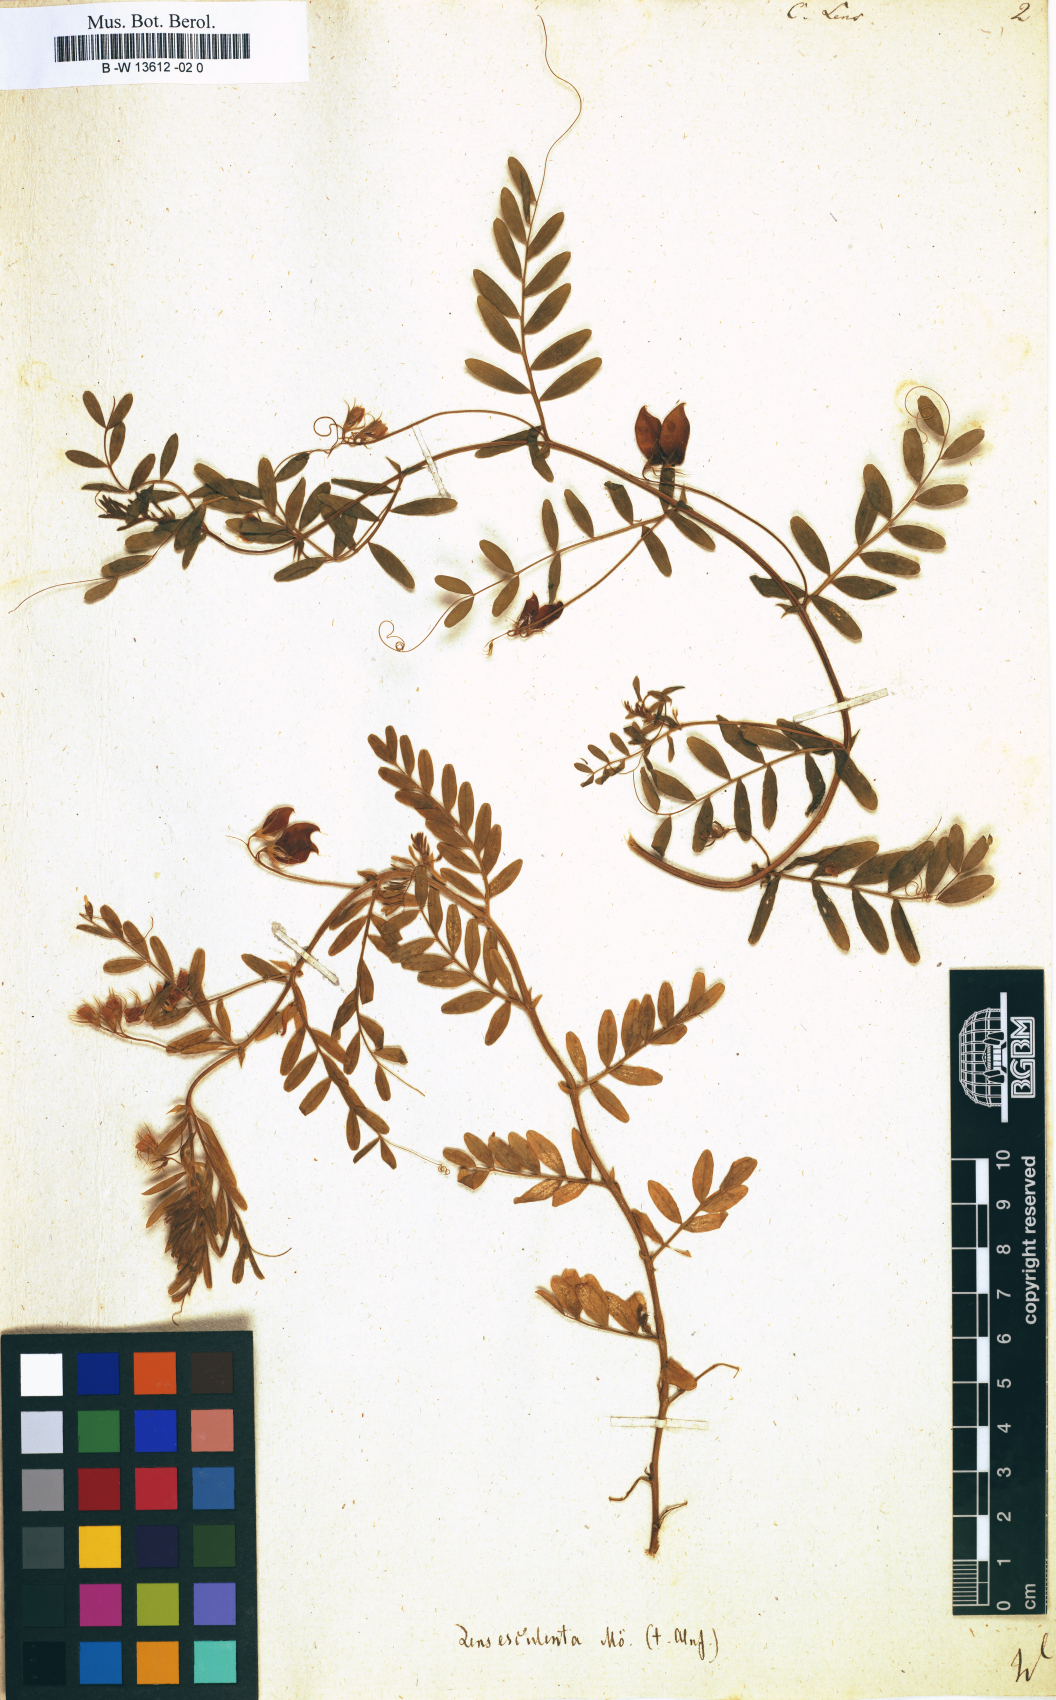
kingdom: Plantae
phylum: Tracheophyta
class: Magnoliopsida
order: Fabales
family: Fabaceae
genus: Vicia
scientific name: Vicia lens
